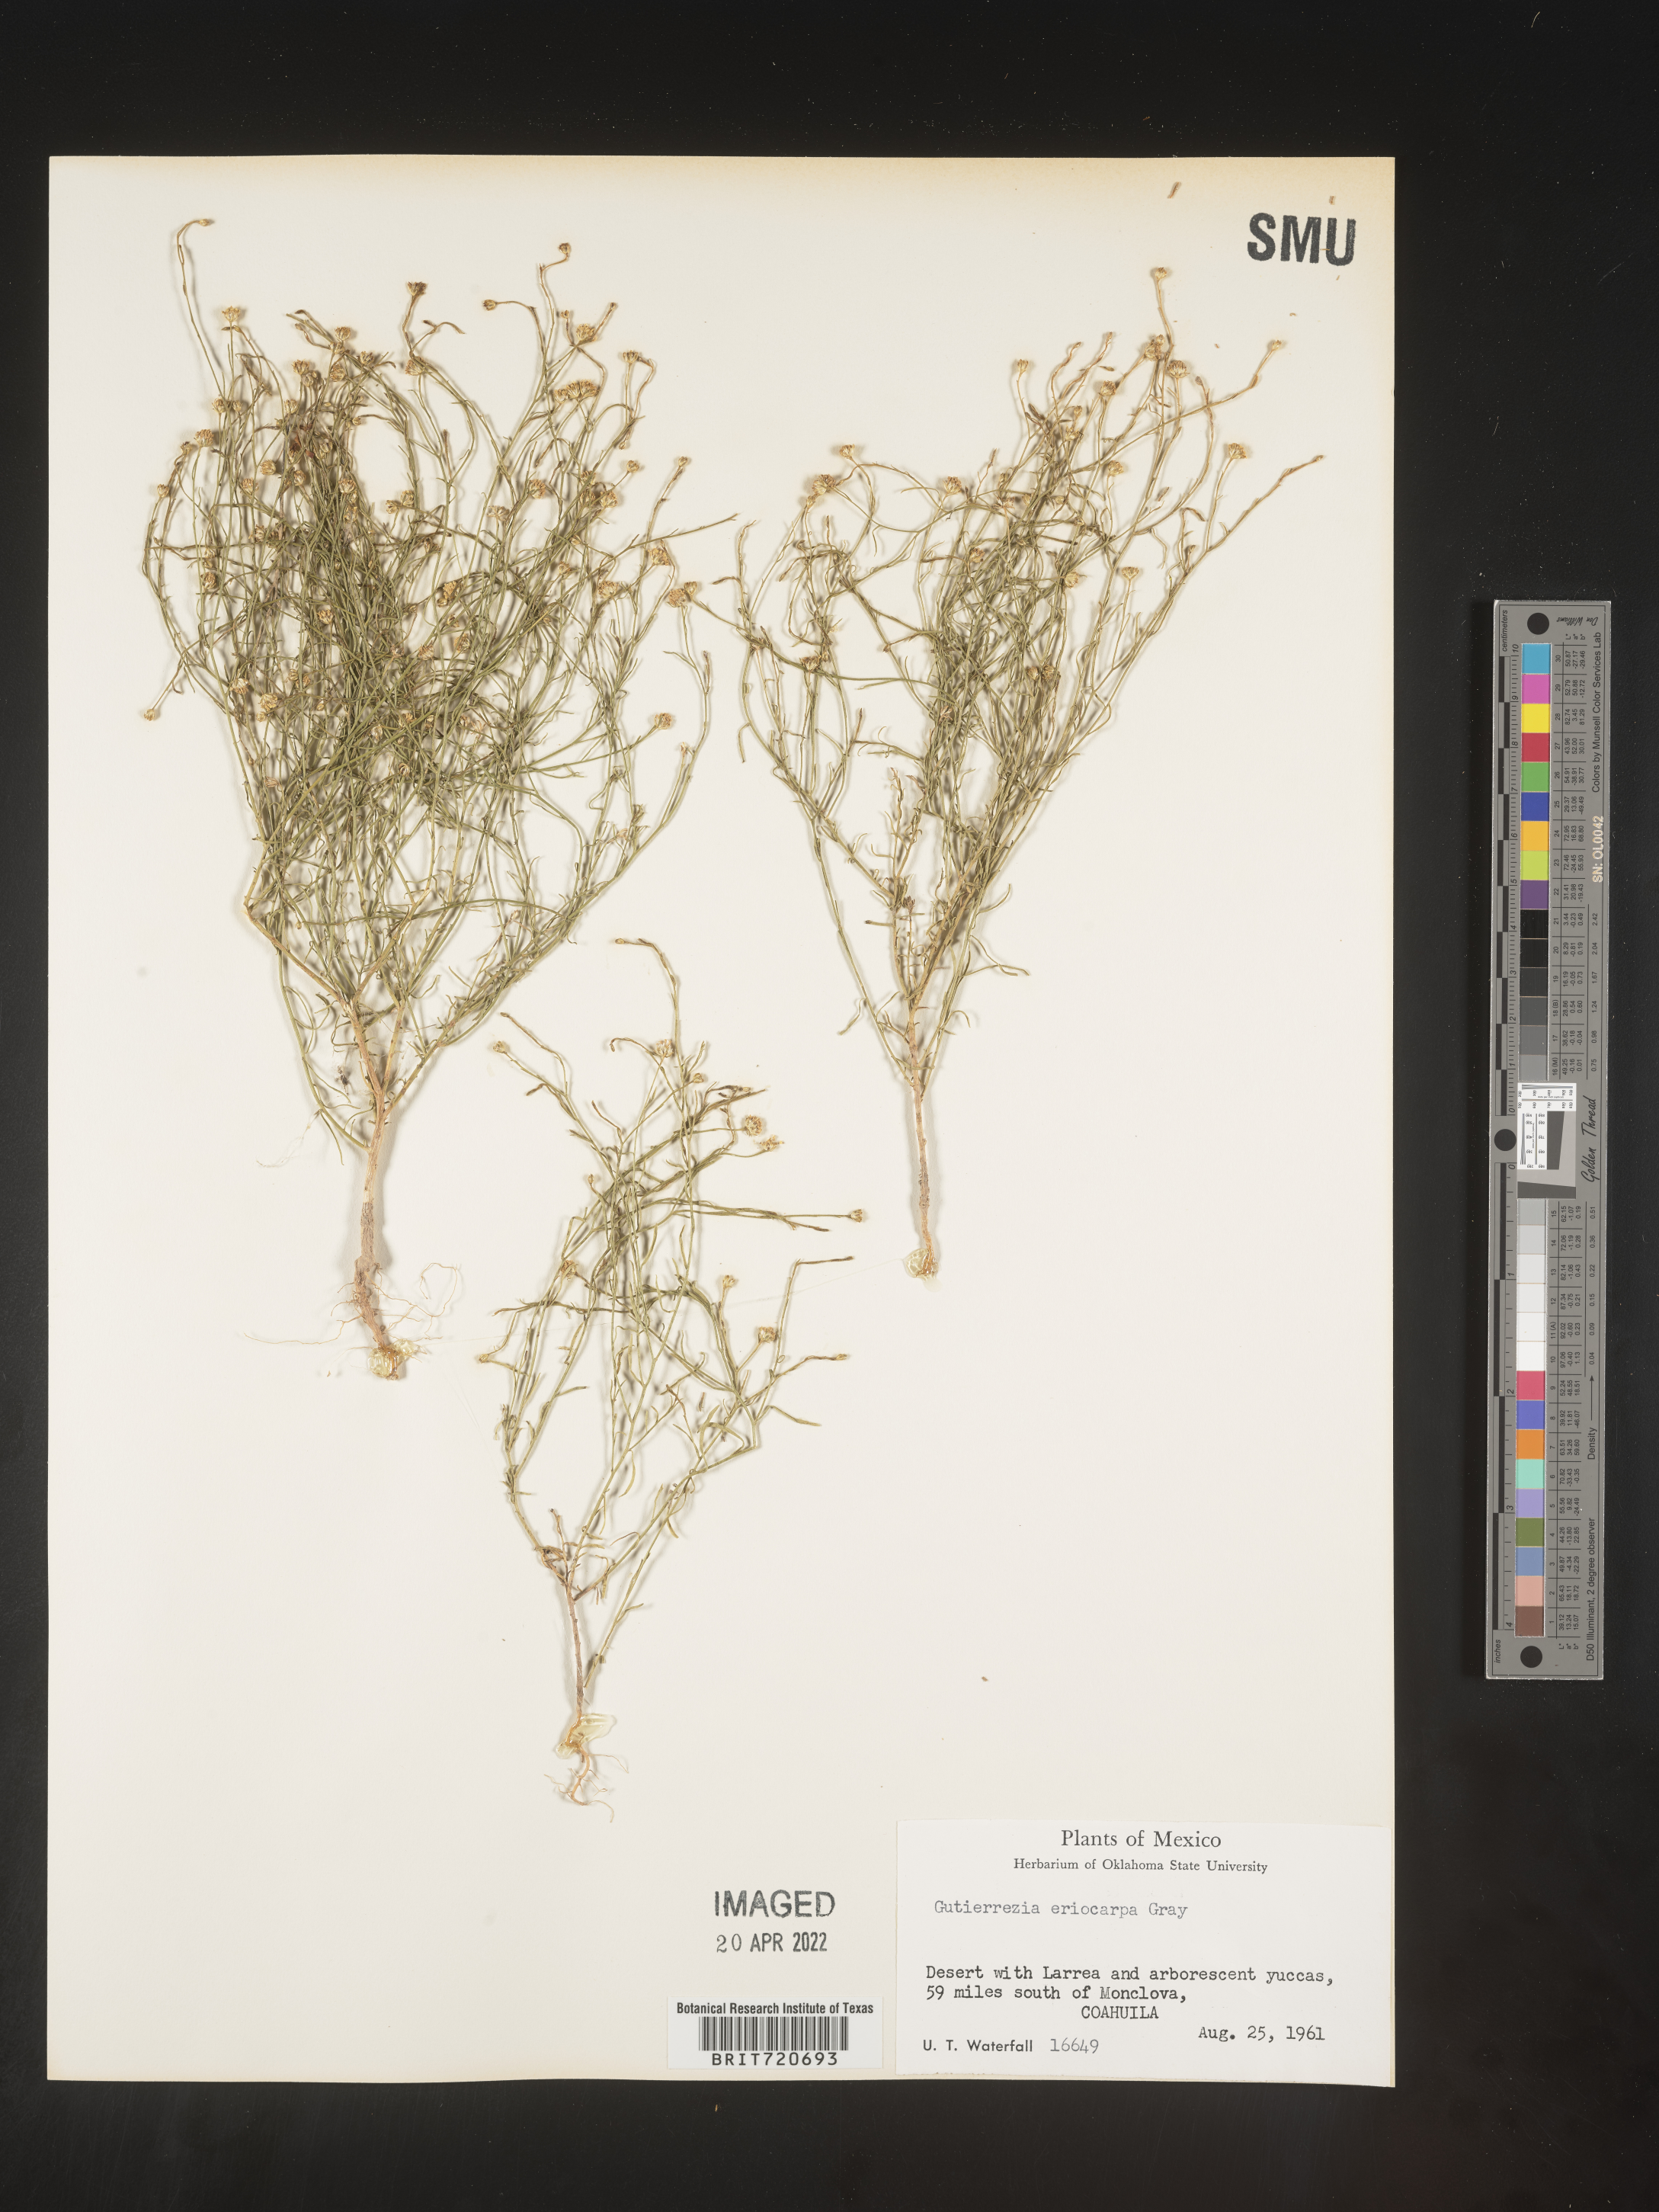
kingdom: Plantae
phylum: Tracheophyta
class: Magnoliopsida
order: Asterales
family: Asteraceae
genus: Gutierrezia
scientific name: Gutierrezia sphaerocephala
